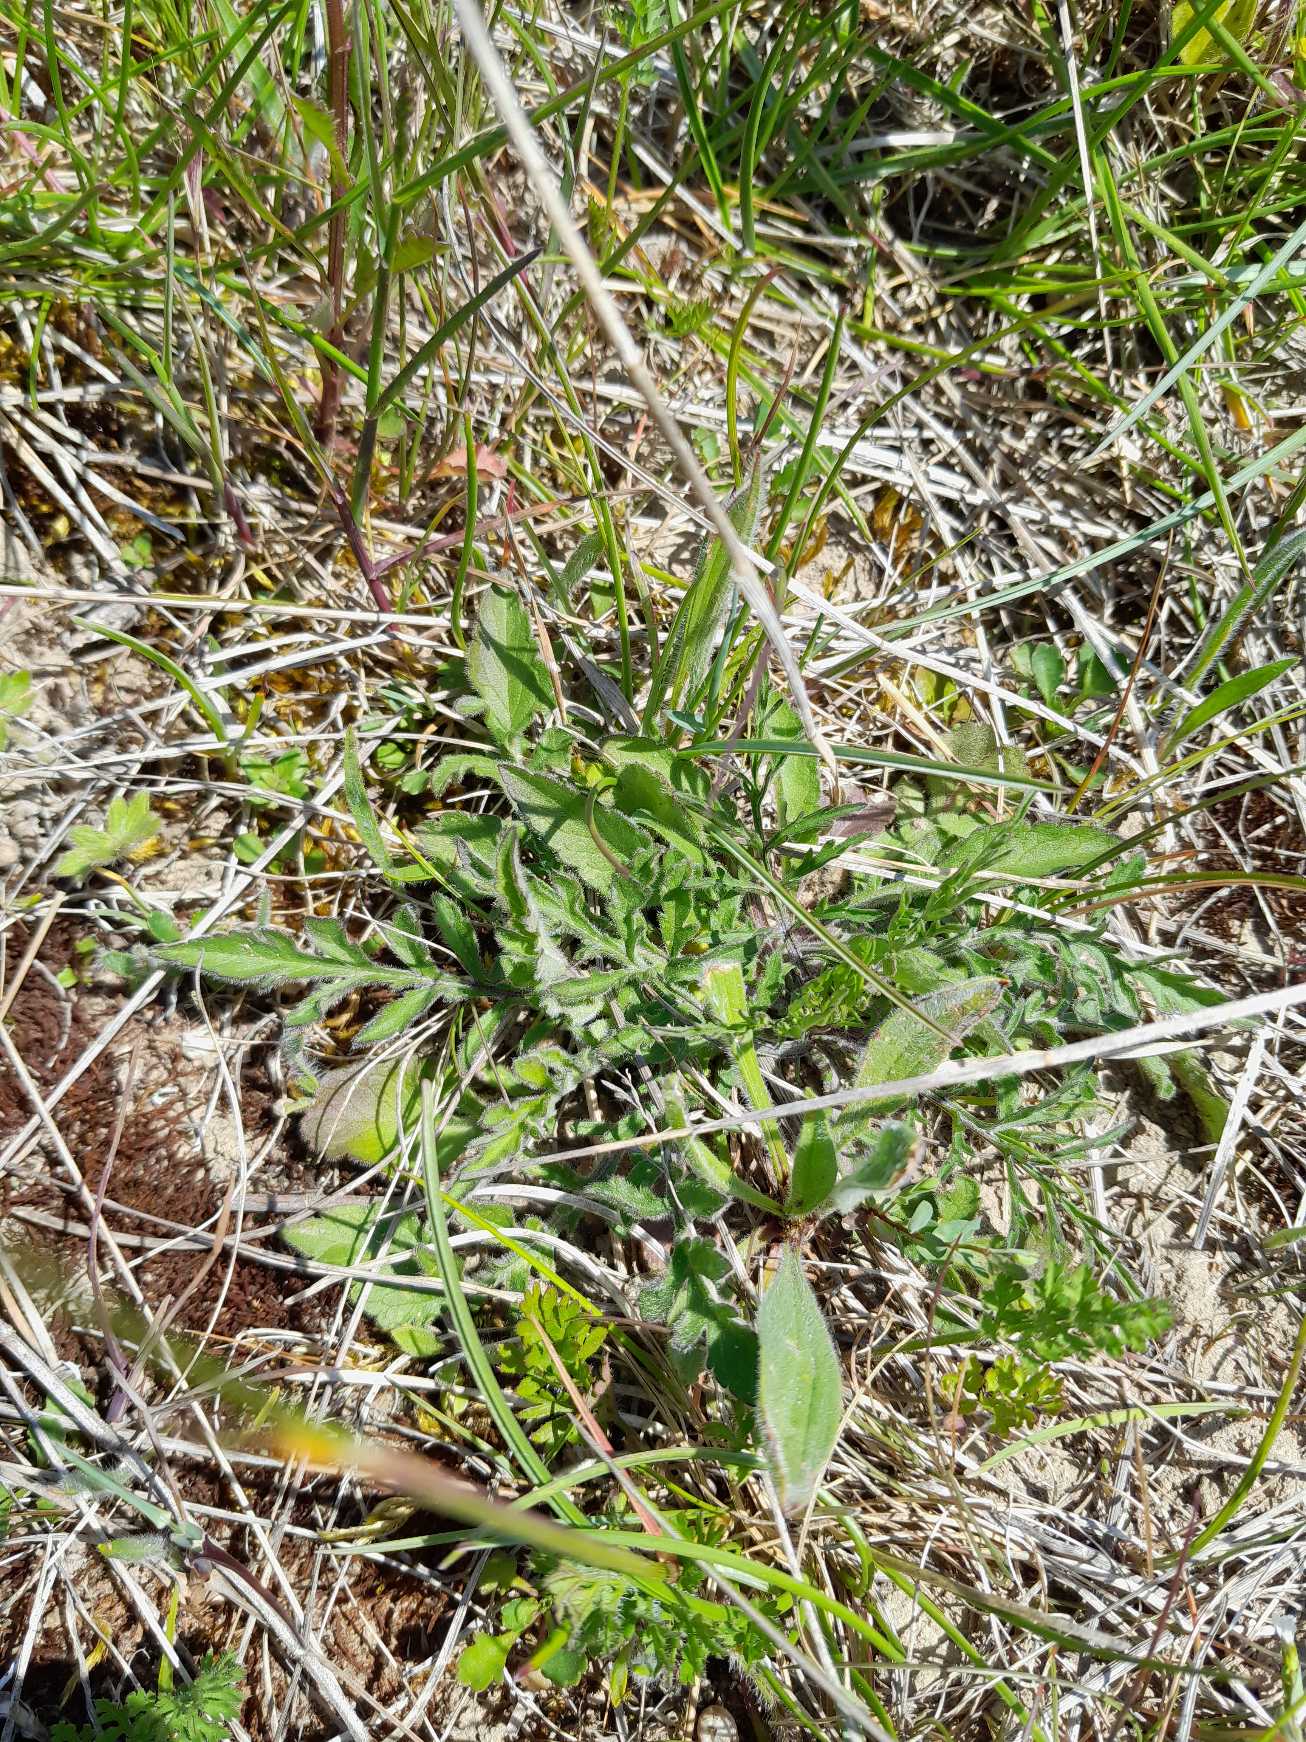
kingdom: Plantae
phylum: Tracheophyta
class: Magnoliopsida
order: Dipsacales
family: Caprifoliaceae
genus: Scabiosa
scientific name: Scabiosa columbaria
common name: Due-skabiose
